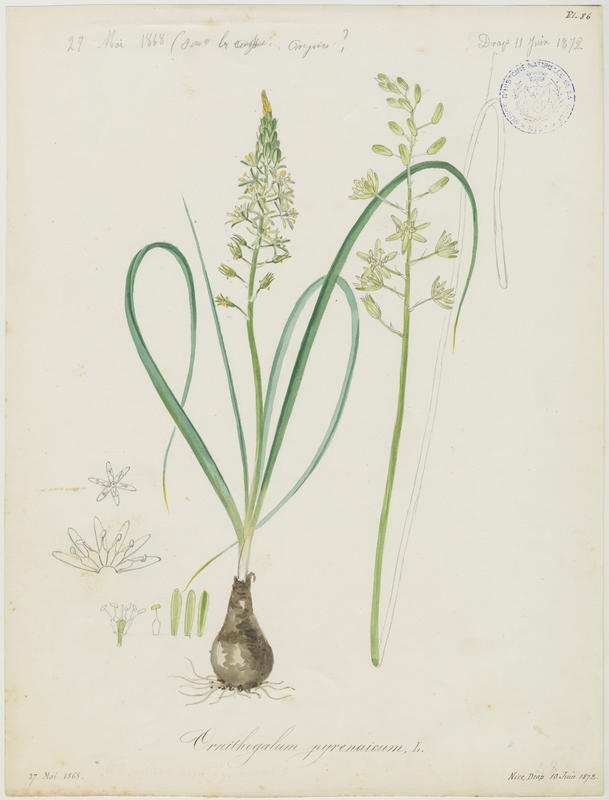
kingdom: Plantae
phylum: Tracheophyta
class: Liliopsida
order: Asparagales
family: Asparagaceae
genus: Ornithogalum
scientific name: Ornithogalum pyrenaicum
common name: Spiked star-of-bethlehem
